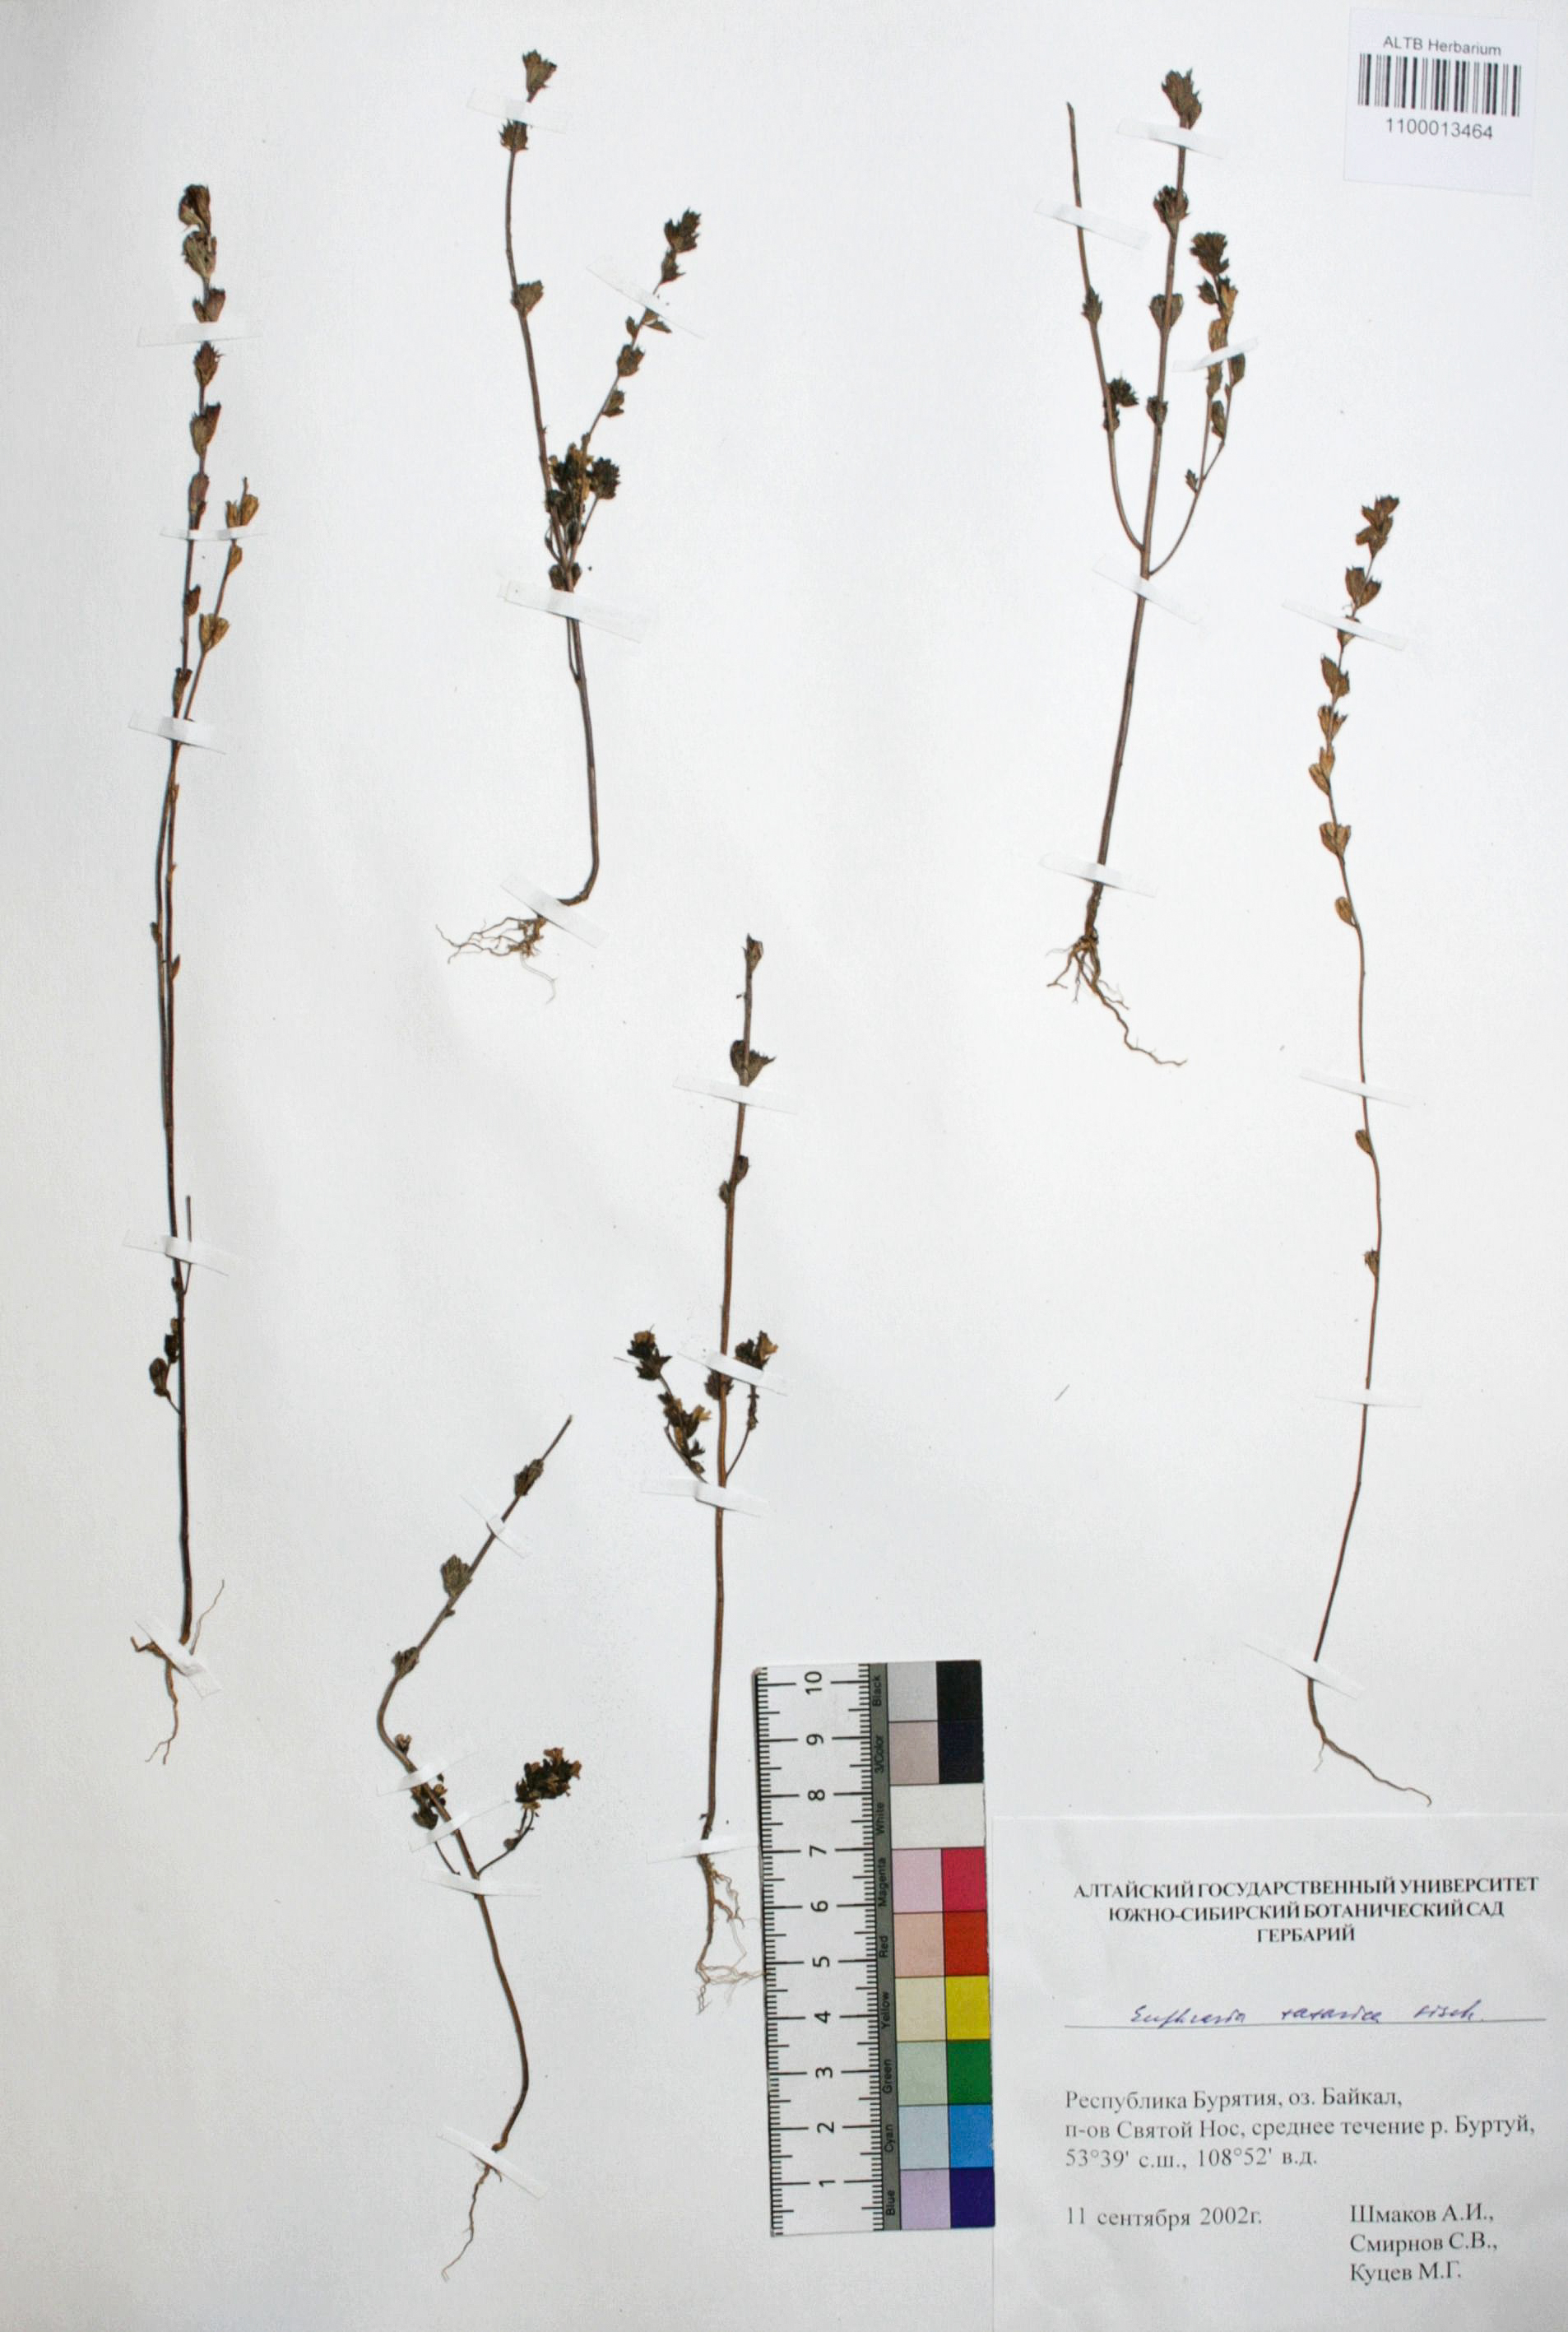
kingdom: Plantae
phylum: Tracheophyta
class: Magnoliopsida
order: Lamiales
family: Orobanchaceae
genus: Euphrasia
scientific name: Euphrasia pectinata
